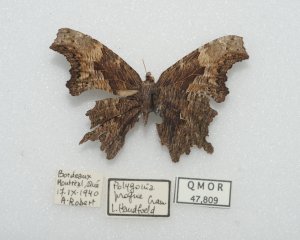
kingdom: Animalia
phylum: Arthropoda
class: Insecta
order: Lepidoptera
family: Nymphalidae
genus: Polygonia
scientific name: Polygonia progne
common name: Gray Comma
